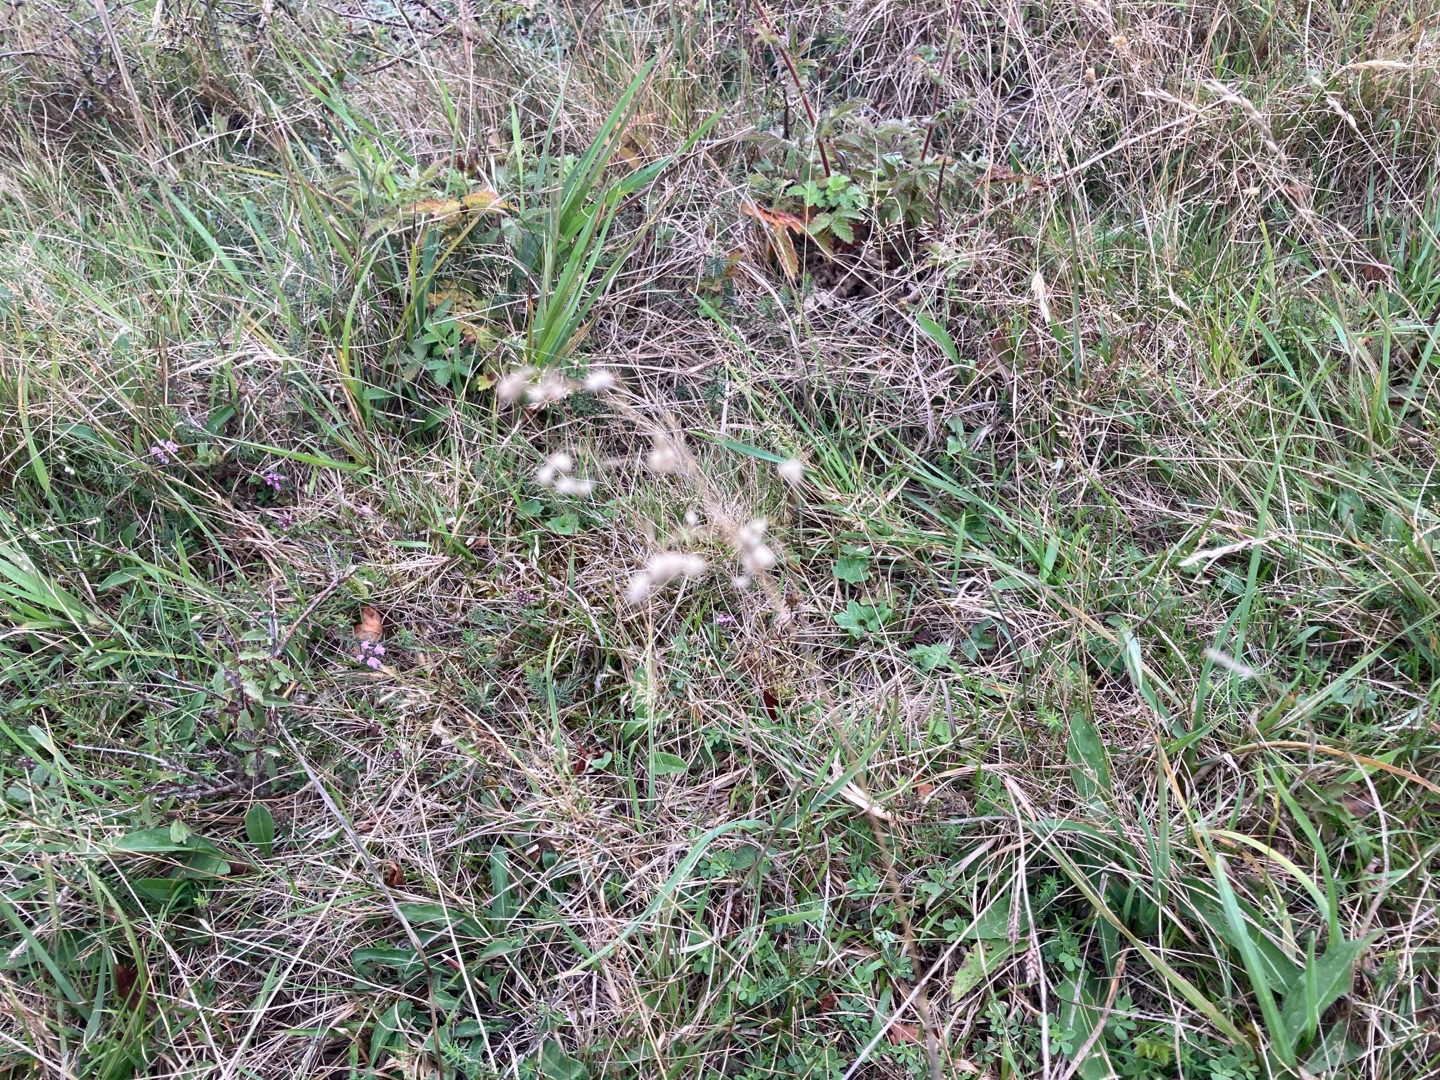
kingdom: Plantae
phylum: Tracheophyta
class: Liliopsida
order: Poales
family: Poaceae
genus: Briza
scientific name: Briza media
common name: Hjertegræs
